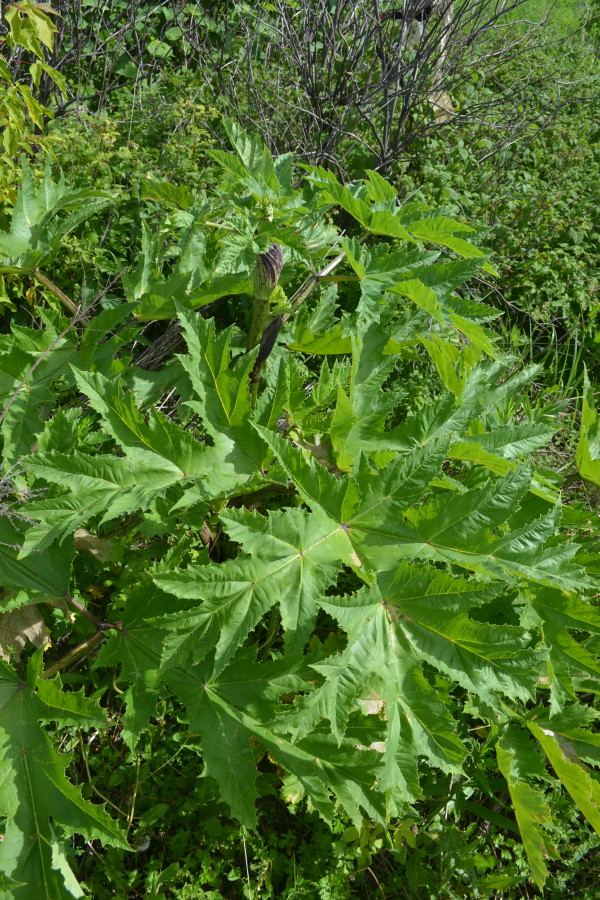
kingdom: Plantae
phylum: Tracheophyta
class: Magnoliopsida
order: Apiales
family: Apiaceae
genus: Heracleum
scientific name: Heracleum sosnowskyi
